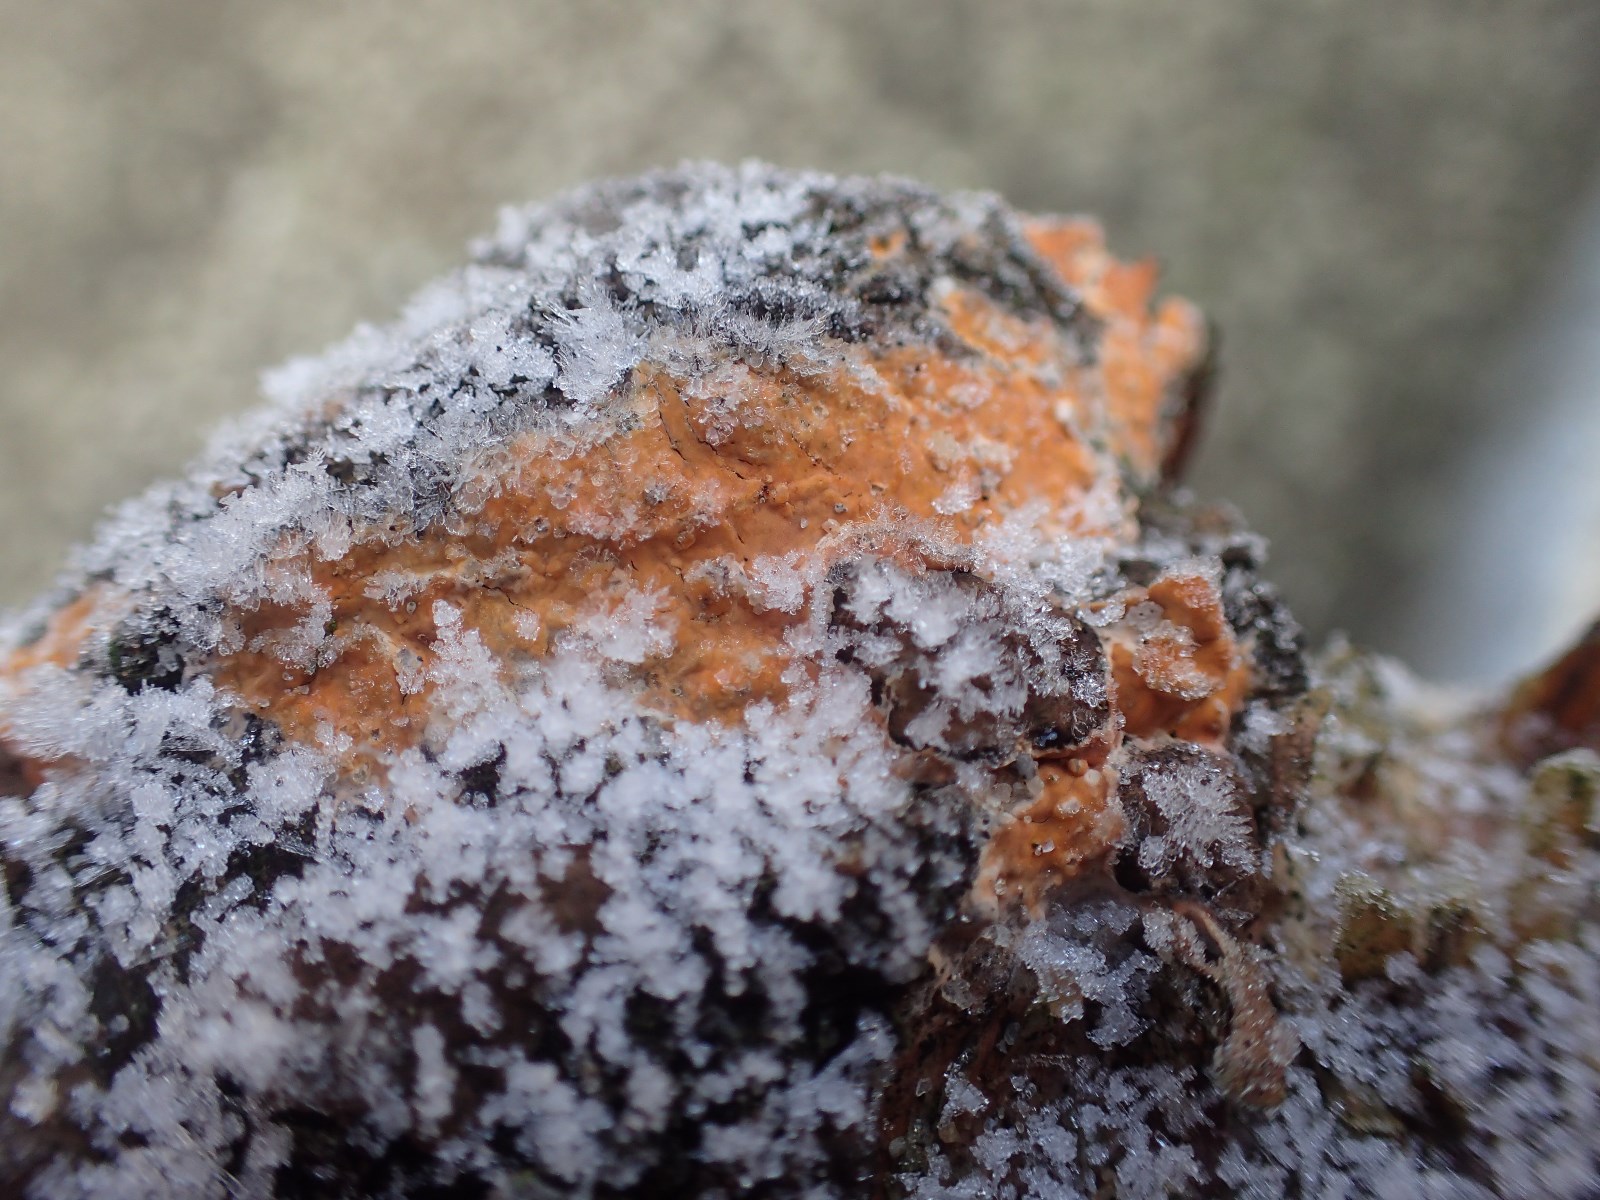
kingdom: Fungi
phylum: Basidiomycota
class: Agaricomycetes
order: Russulales
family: Peniophoraceae
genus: Peniophora
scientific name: Peniophora incarnata
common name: laksefarvet voksskind
